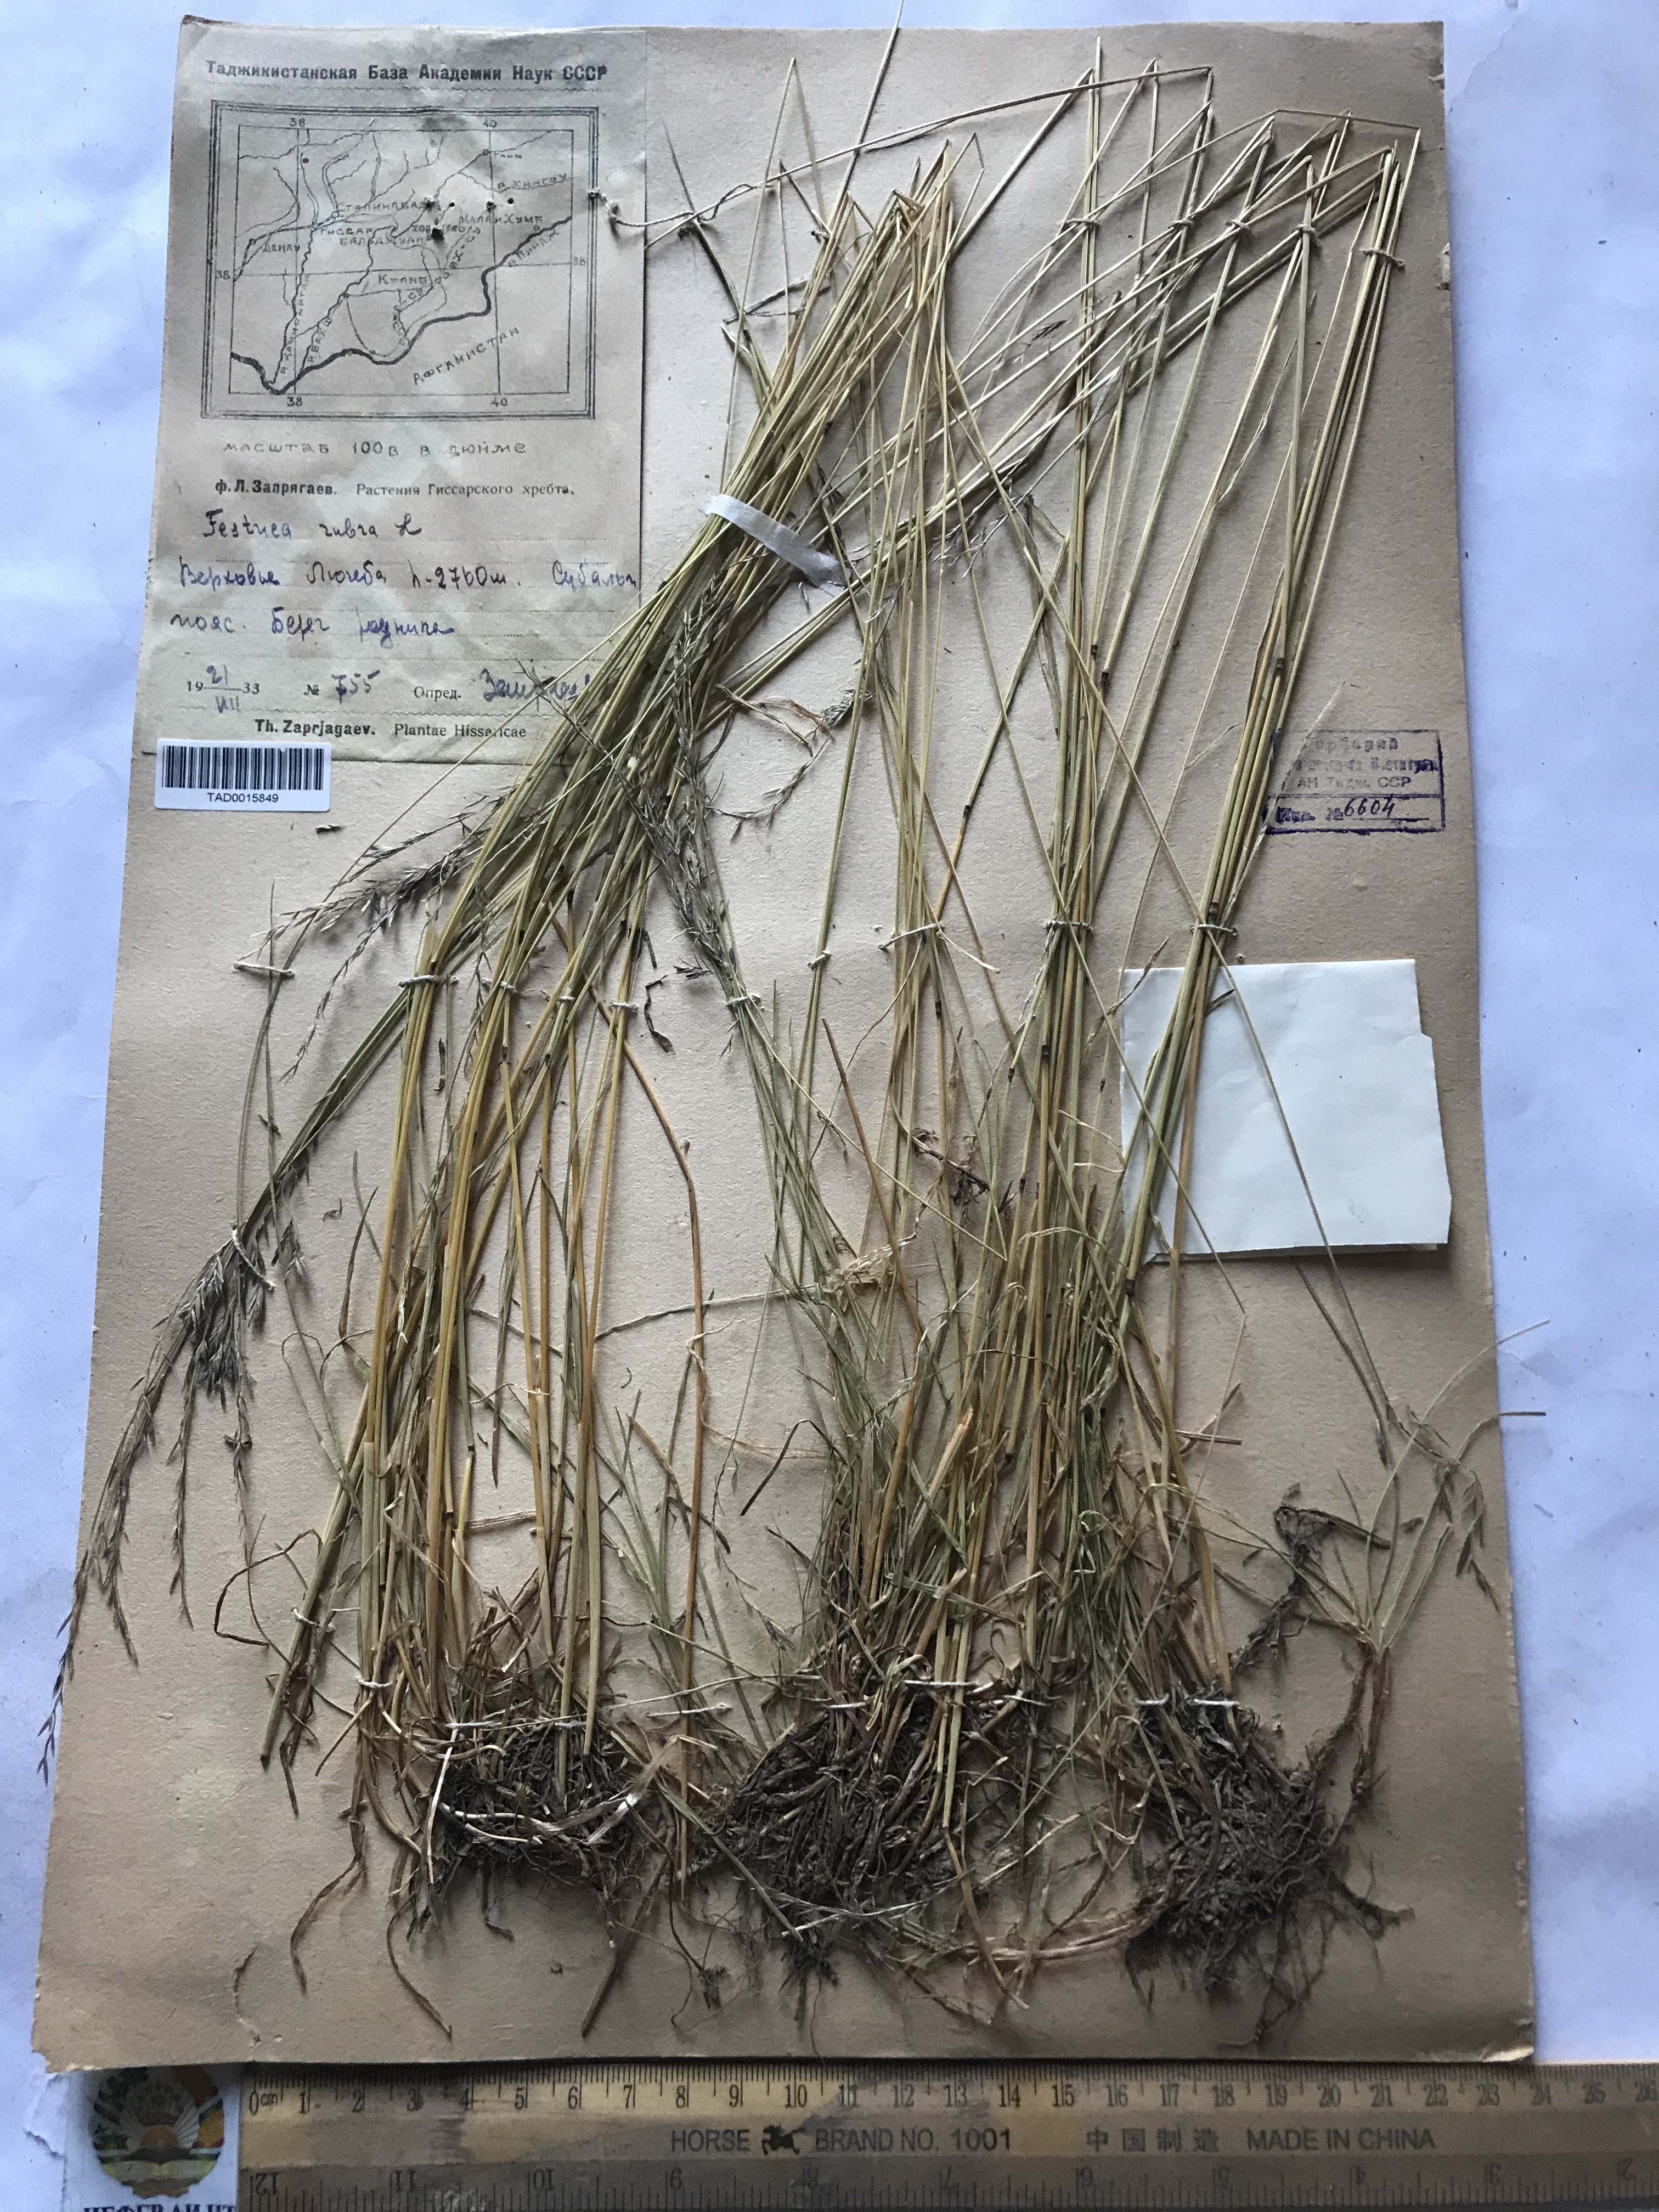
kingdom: Plantae
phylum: Tracheophyta
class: Liliopsida
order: Poales
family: Poaceae
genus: Festuca
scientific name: Festuca rubra
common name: Red fescue
